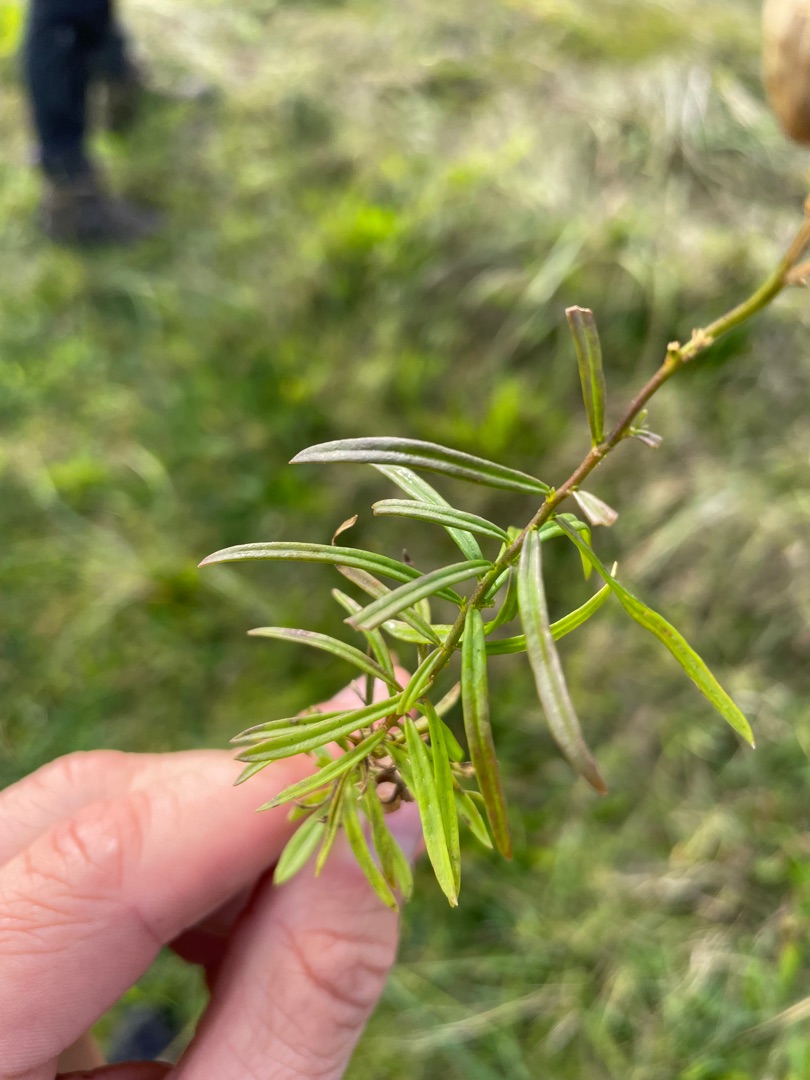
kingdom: Plantae
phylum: Tracheophyta
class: Magnoliopsida
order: Lamiales
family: Plantaginaceae
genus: Linaria
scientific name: Linaria vulgaris
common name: Almindelig torskemund
